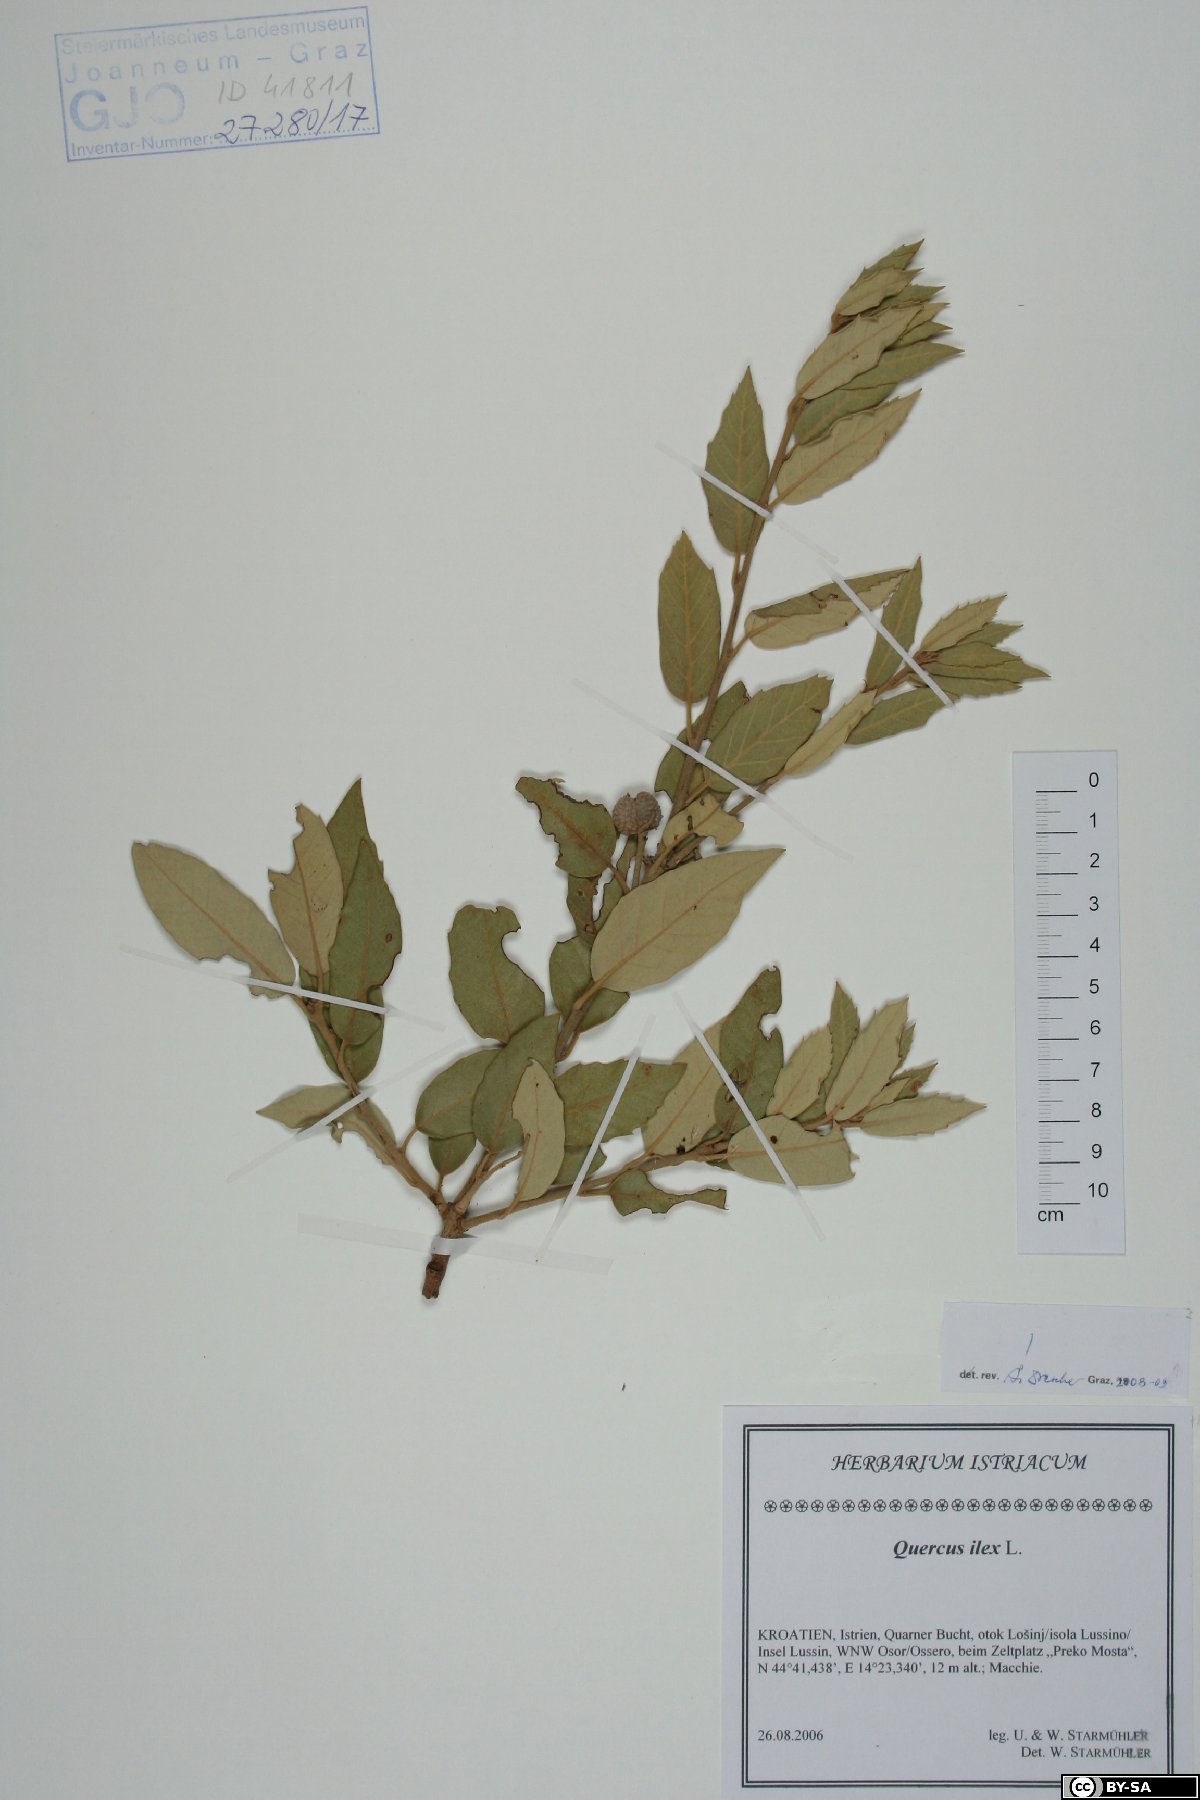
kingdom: Plantae
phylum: Tracheophyta
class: Magnoliopsida
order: Fagales
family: Fagaceae
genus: Quercus
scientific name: Quercus ilex
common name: Evergreen oak
